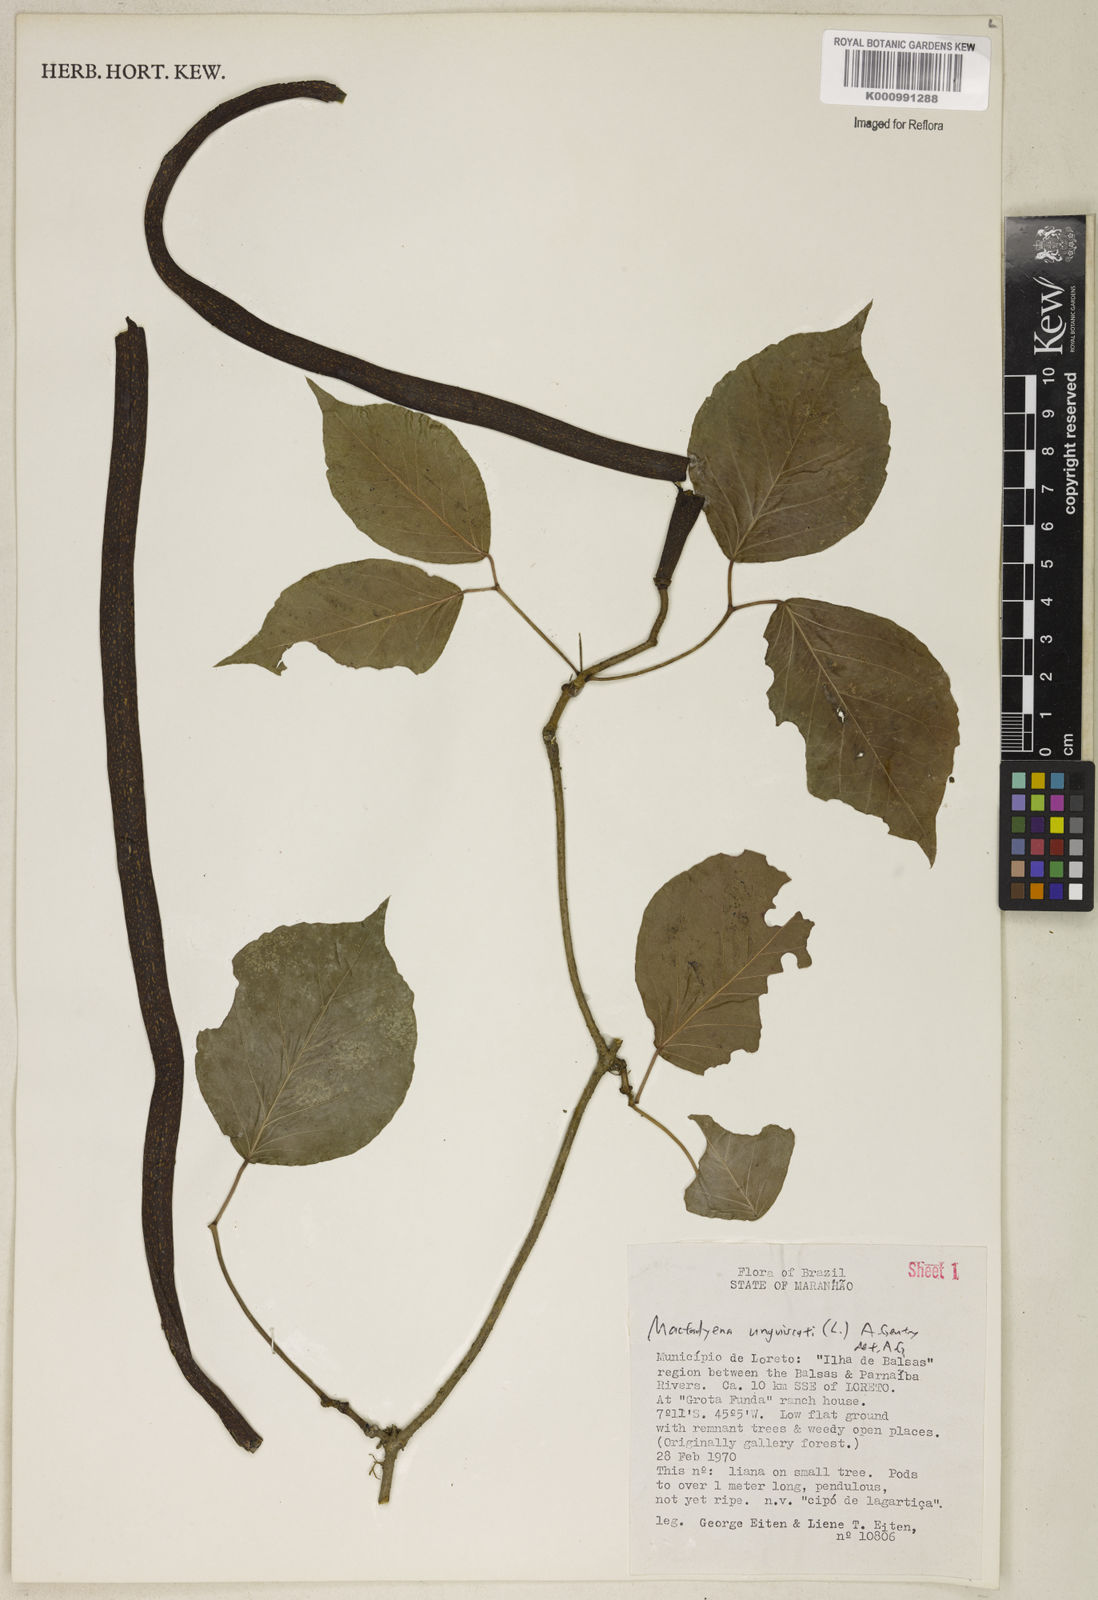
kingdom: Plantae
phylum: Tracheophyta
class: Magnoliopsida
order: Lamiales
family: Bignoniaceae
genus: Dolichandra
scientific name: Dolichandra unguis-cati
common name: Catclaw vine
